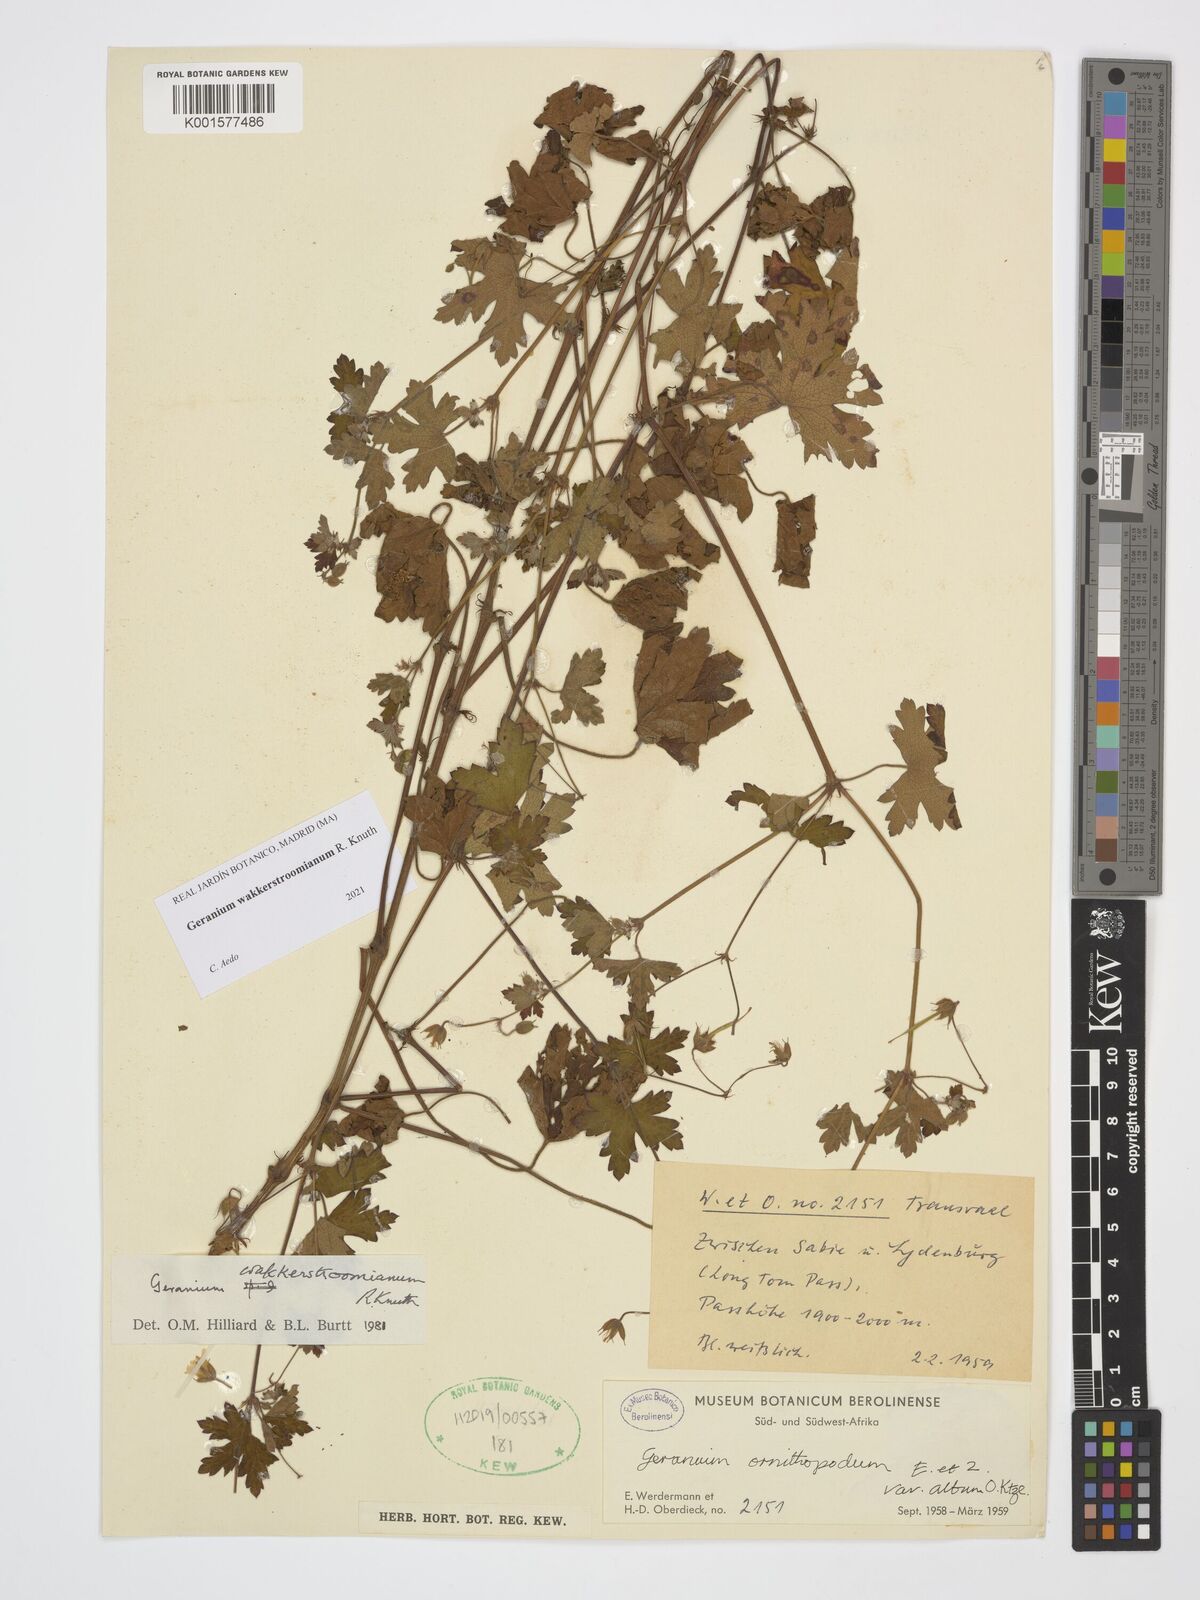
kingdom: Plantae
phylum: Tracheophyta
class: Magnoliopsida
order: Geraniales
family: Geraniaceae
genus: Geranium
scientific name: Geranium wakkerstroomianum
